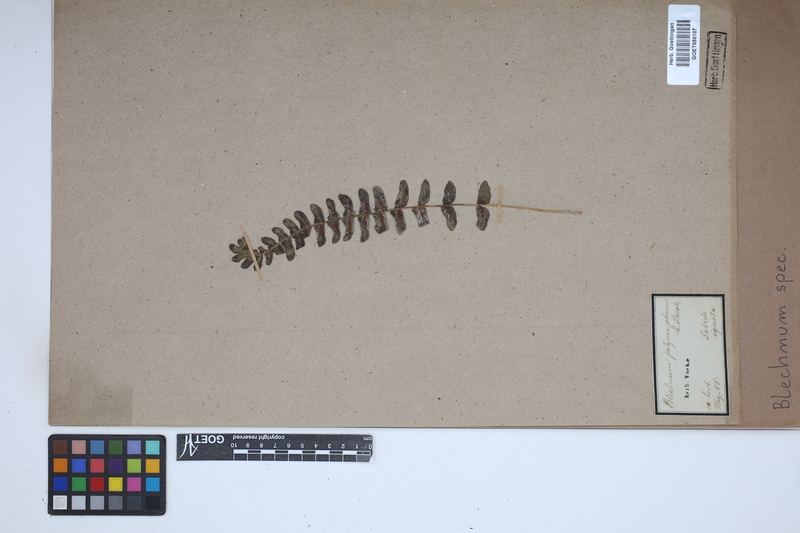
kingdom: Plantae
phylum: Tracheophyta
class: Polypodiopsida
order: Polypodiales
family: Blechnaceae
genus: Blechnum
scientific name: Blechnum
